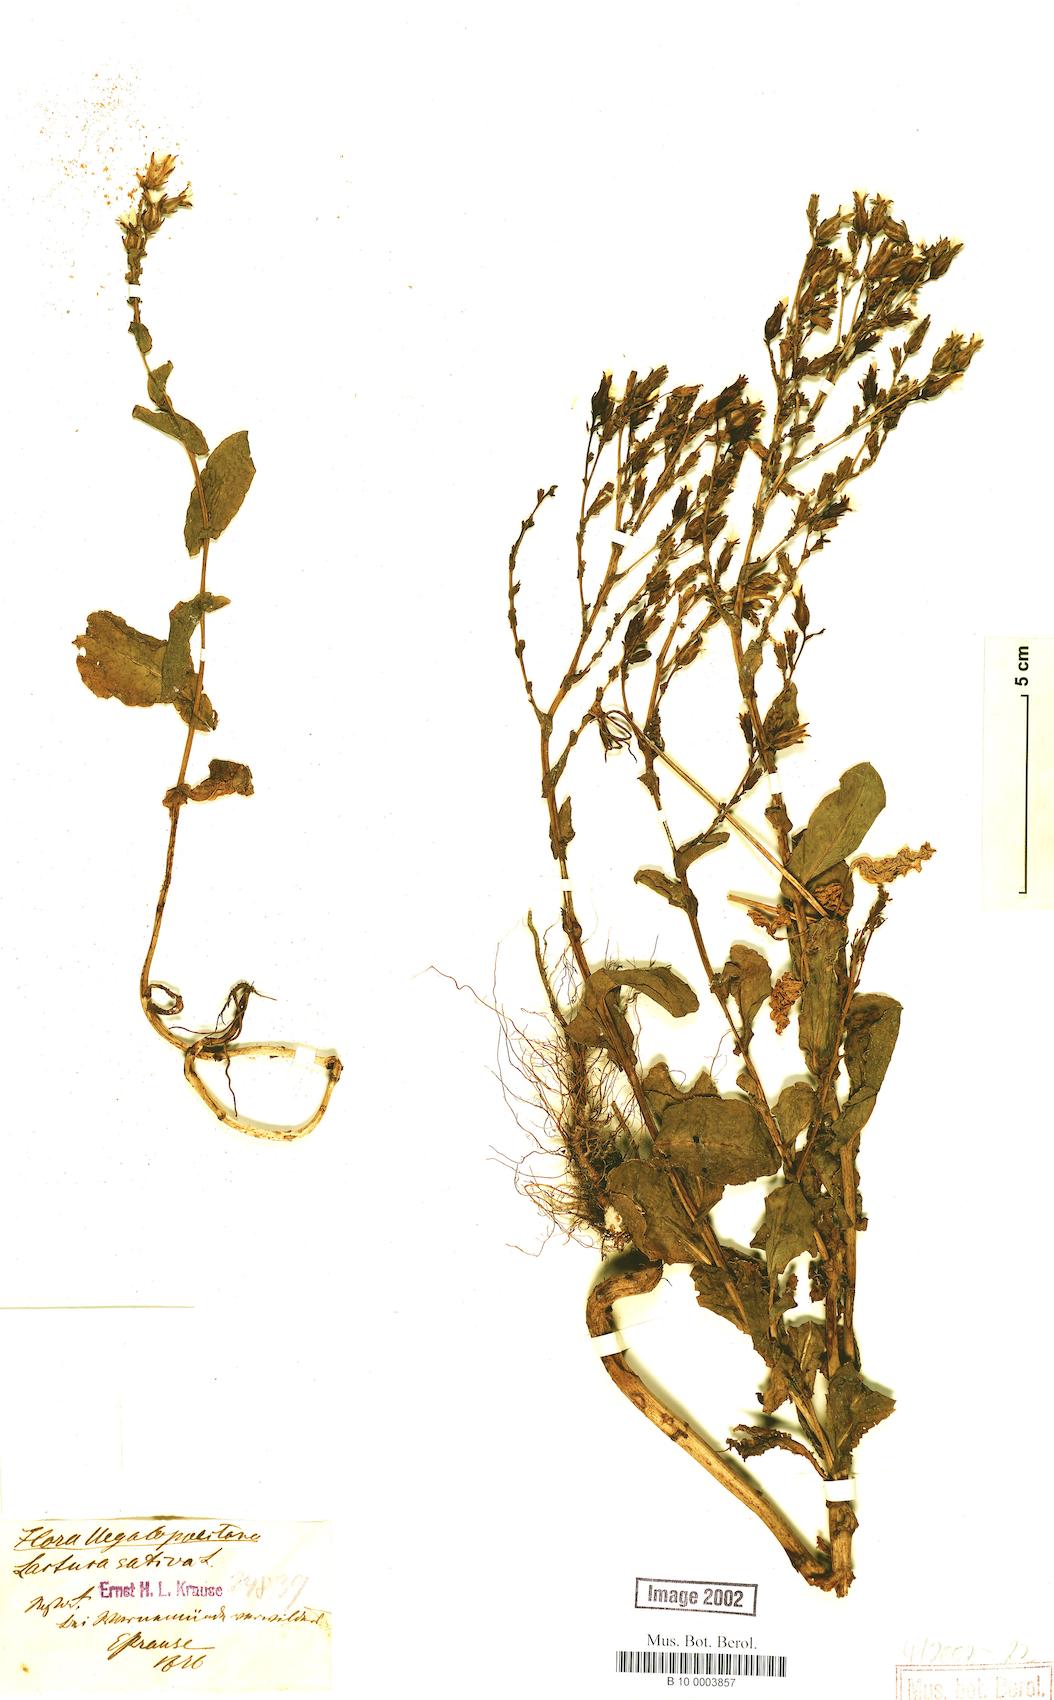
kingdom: Plantae
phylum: Tracheophyta
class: Magnoliopsida
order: Asterales
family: Asteraceae
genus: Lactuca
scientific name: Lactuca sativa
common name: Garden lettuce
